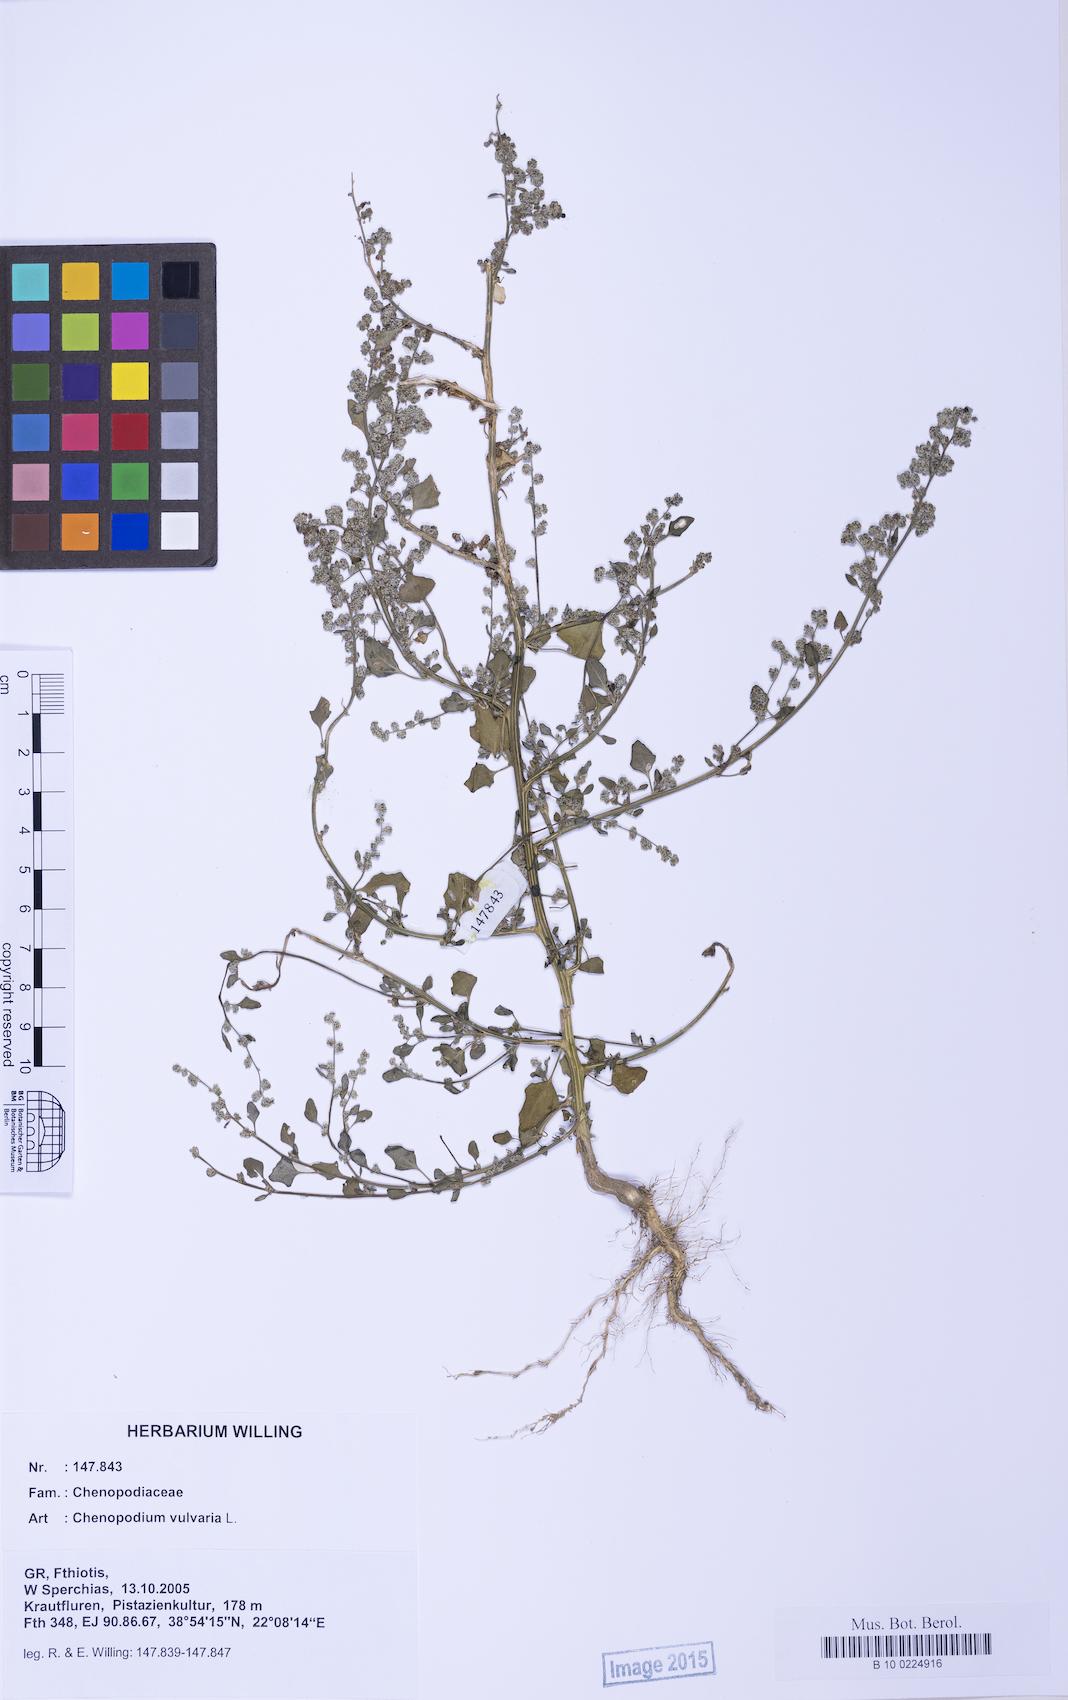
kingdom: Plantae
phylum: Tracheophyta
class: Magnoliopsida
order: Caryophyllales
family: Amaranthaceae
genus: Chenopodium
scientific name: Chenopodium vulvaria
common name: Stinking goosefoot
